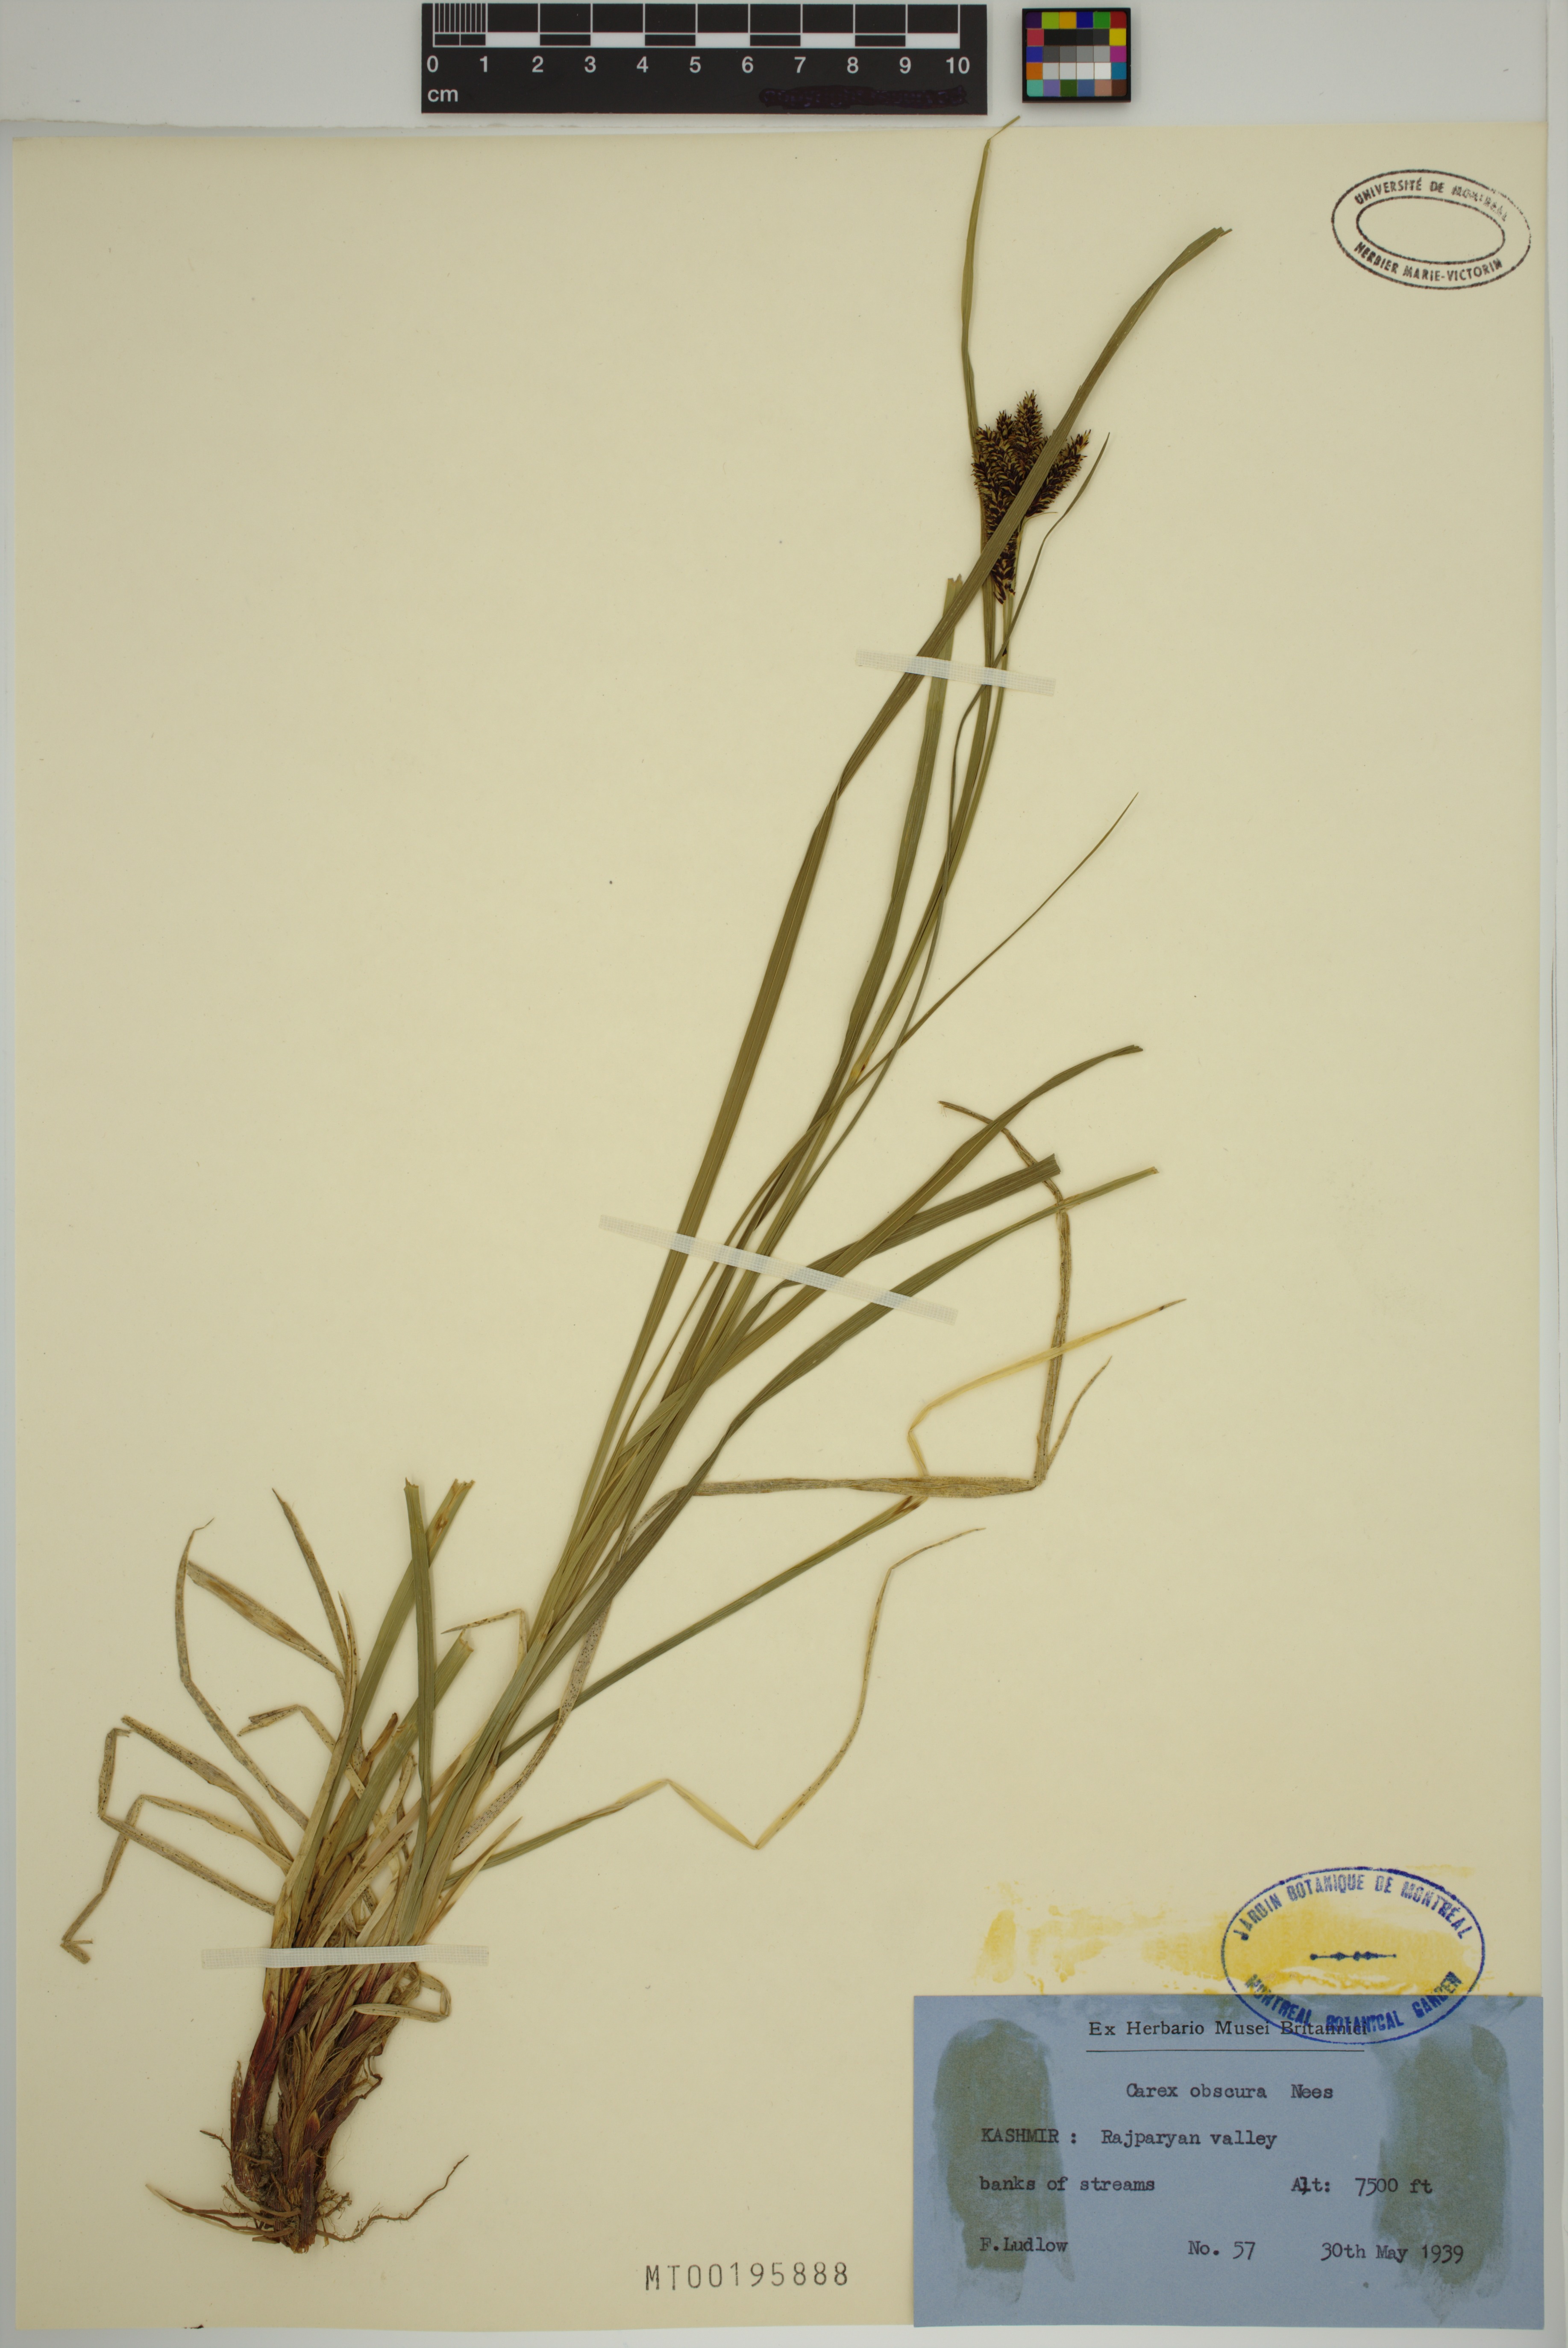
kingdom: Plantae
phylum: Tracheophyta
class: Liliopsida
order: Poales
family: Cyperaceae
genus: Carex
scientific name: Carex obscura
